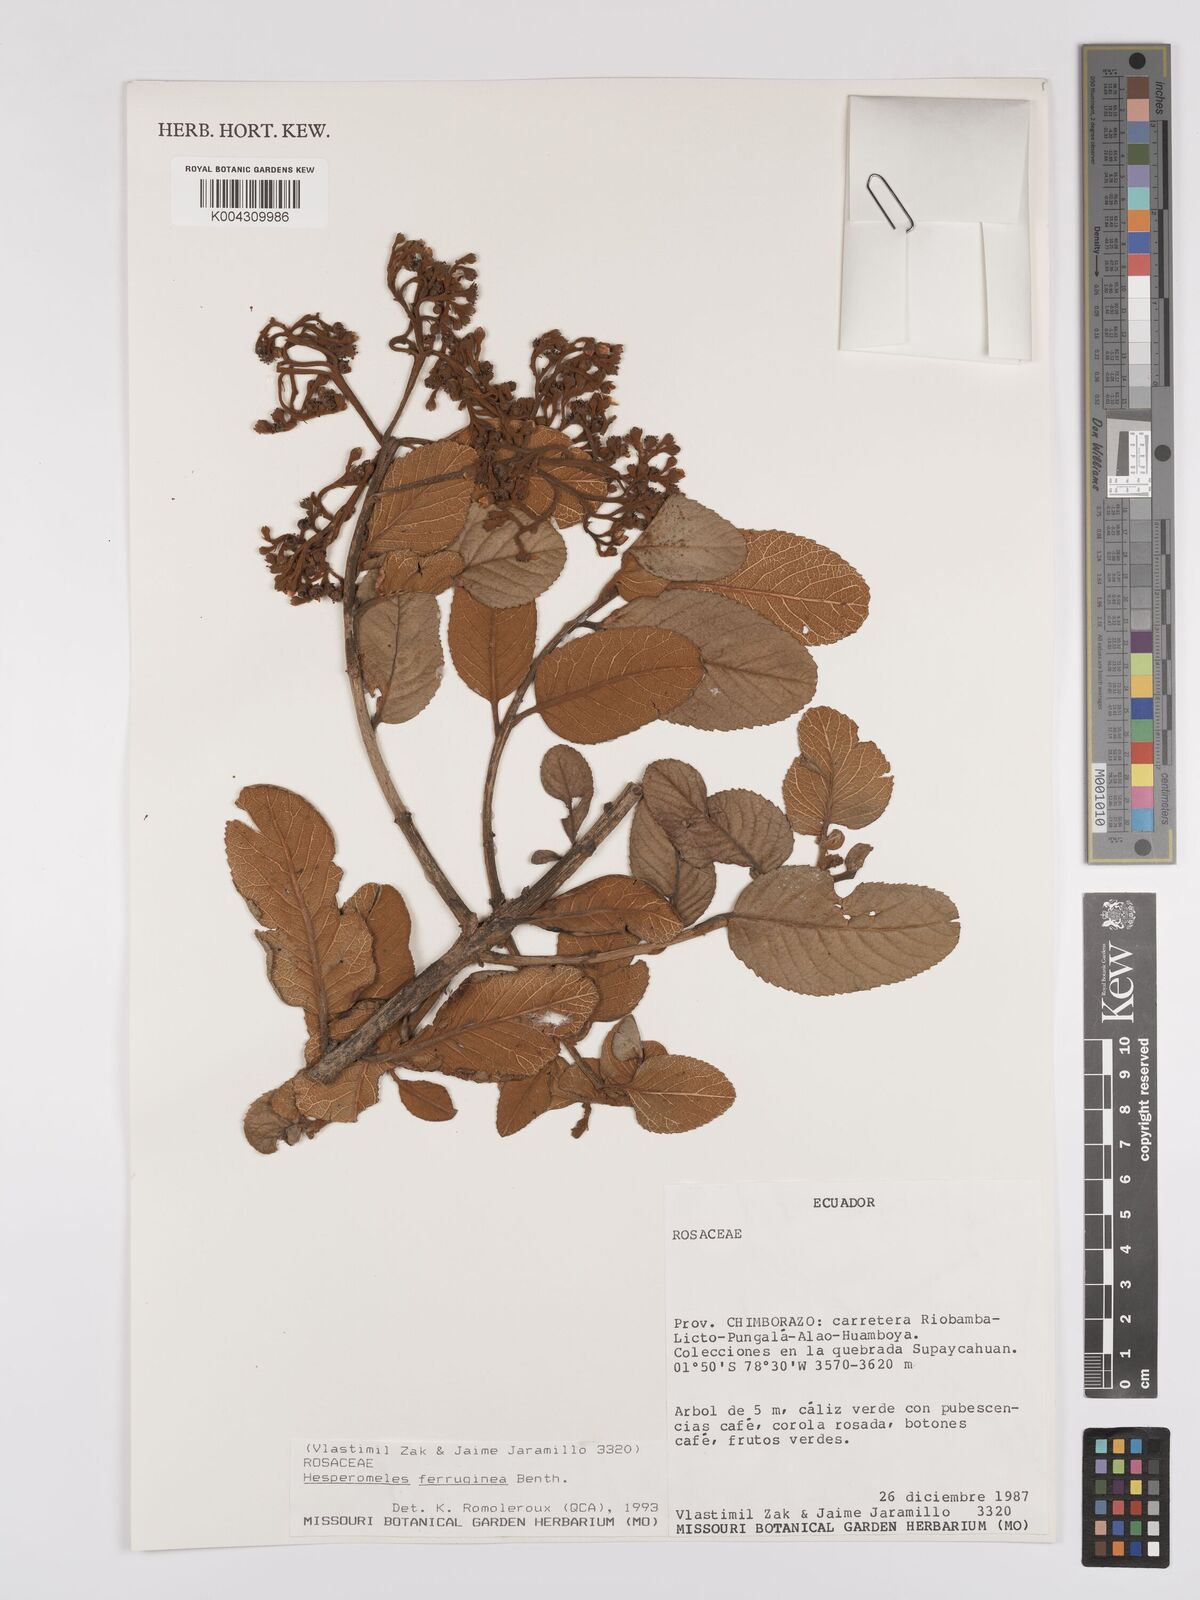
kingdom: Plantae
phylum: Tracheophyta
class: Magnoliopsida
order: Rosales
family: Rosaceae
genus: Hesperomeles
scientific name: Hesperomeles ferruginea
